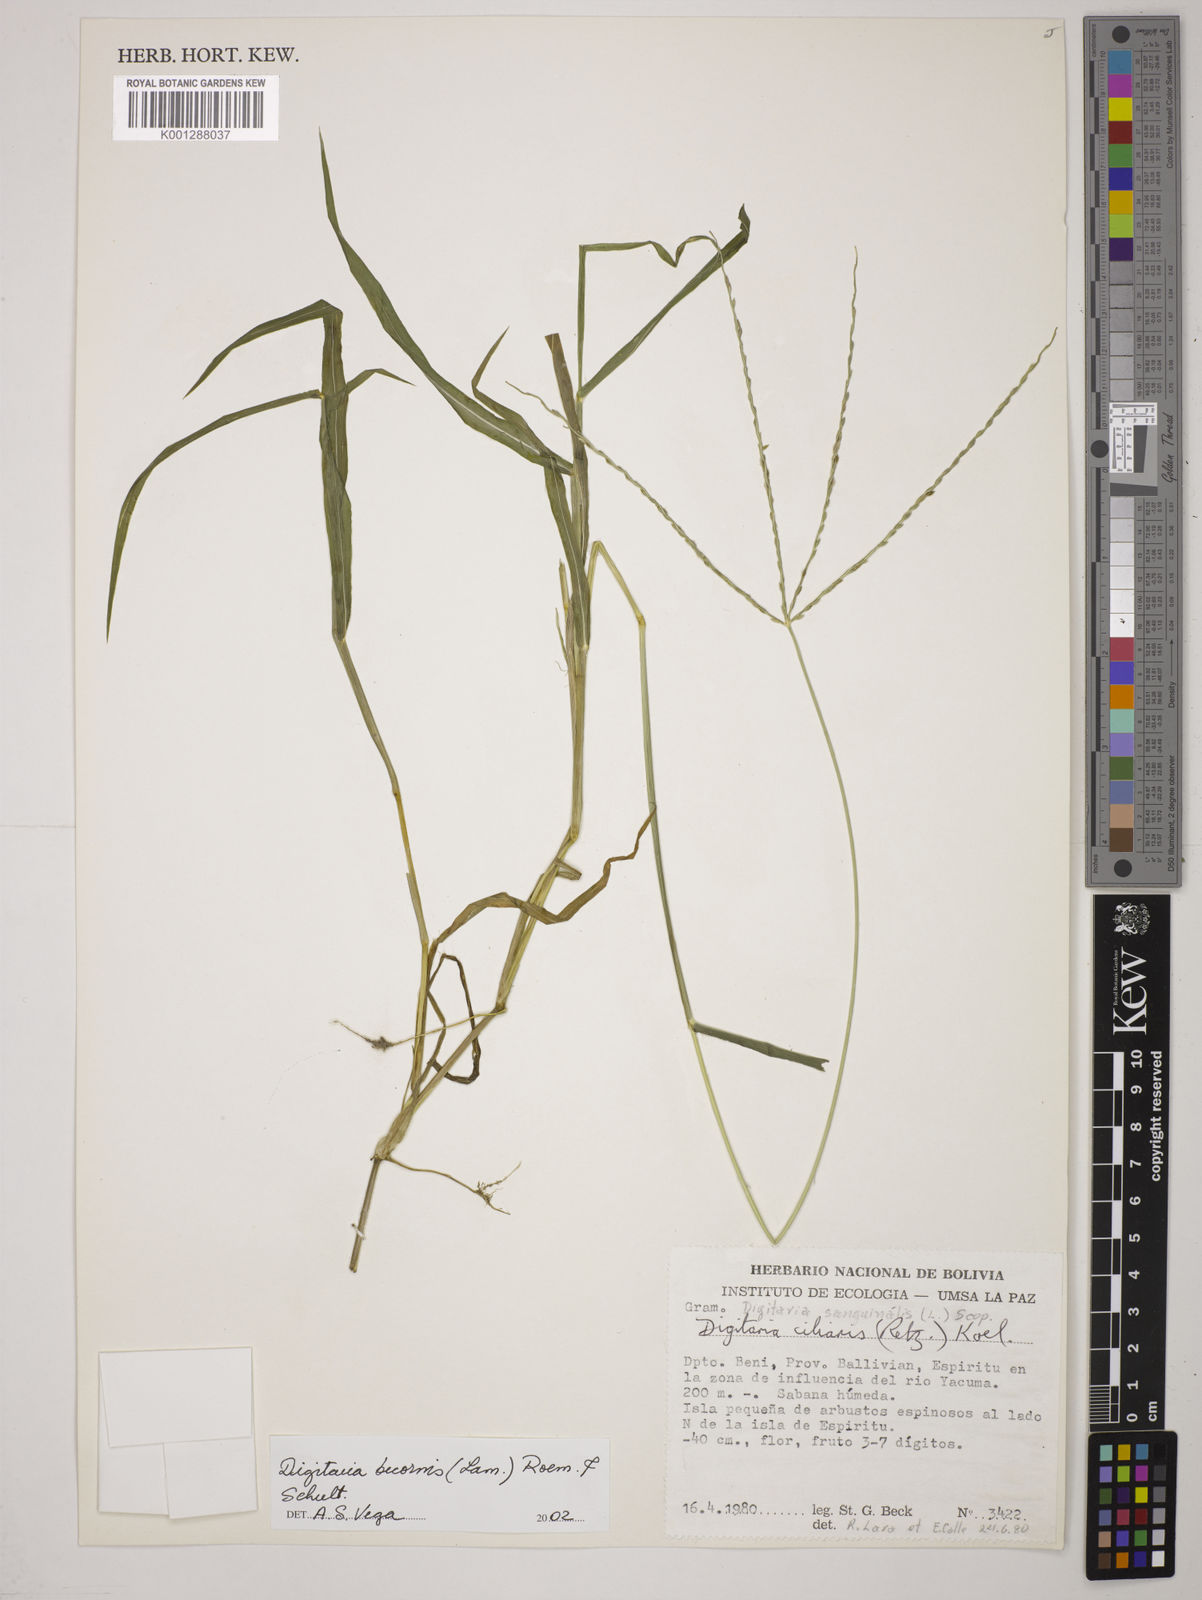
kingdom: Plantae
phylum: Tracheophyta
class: Liliopsida
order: Poales
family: Poaceae
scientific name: Poaceae
